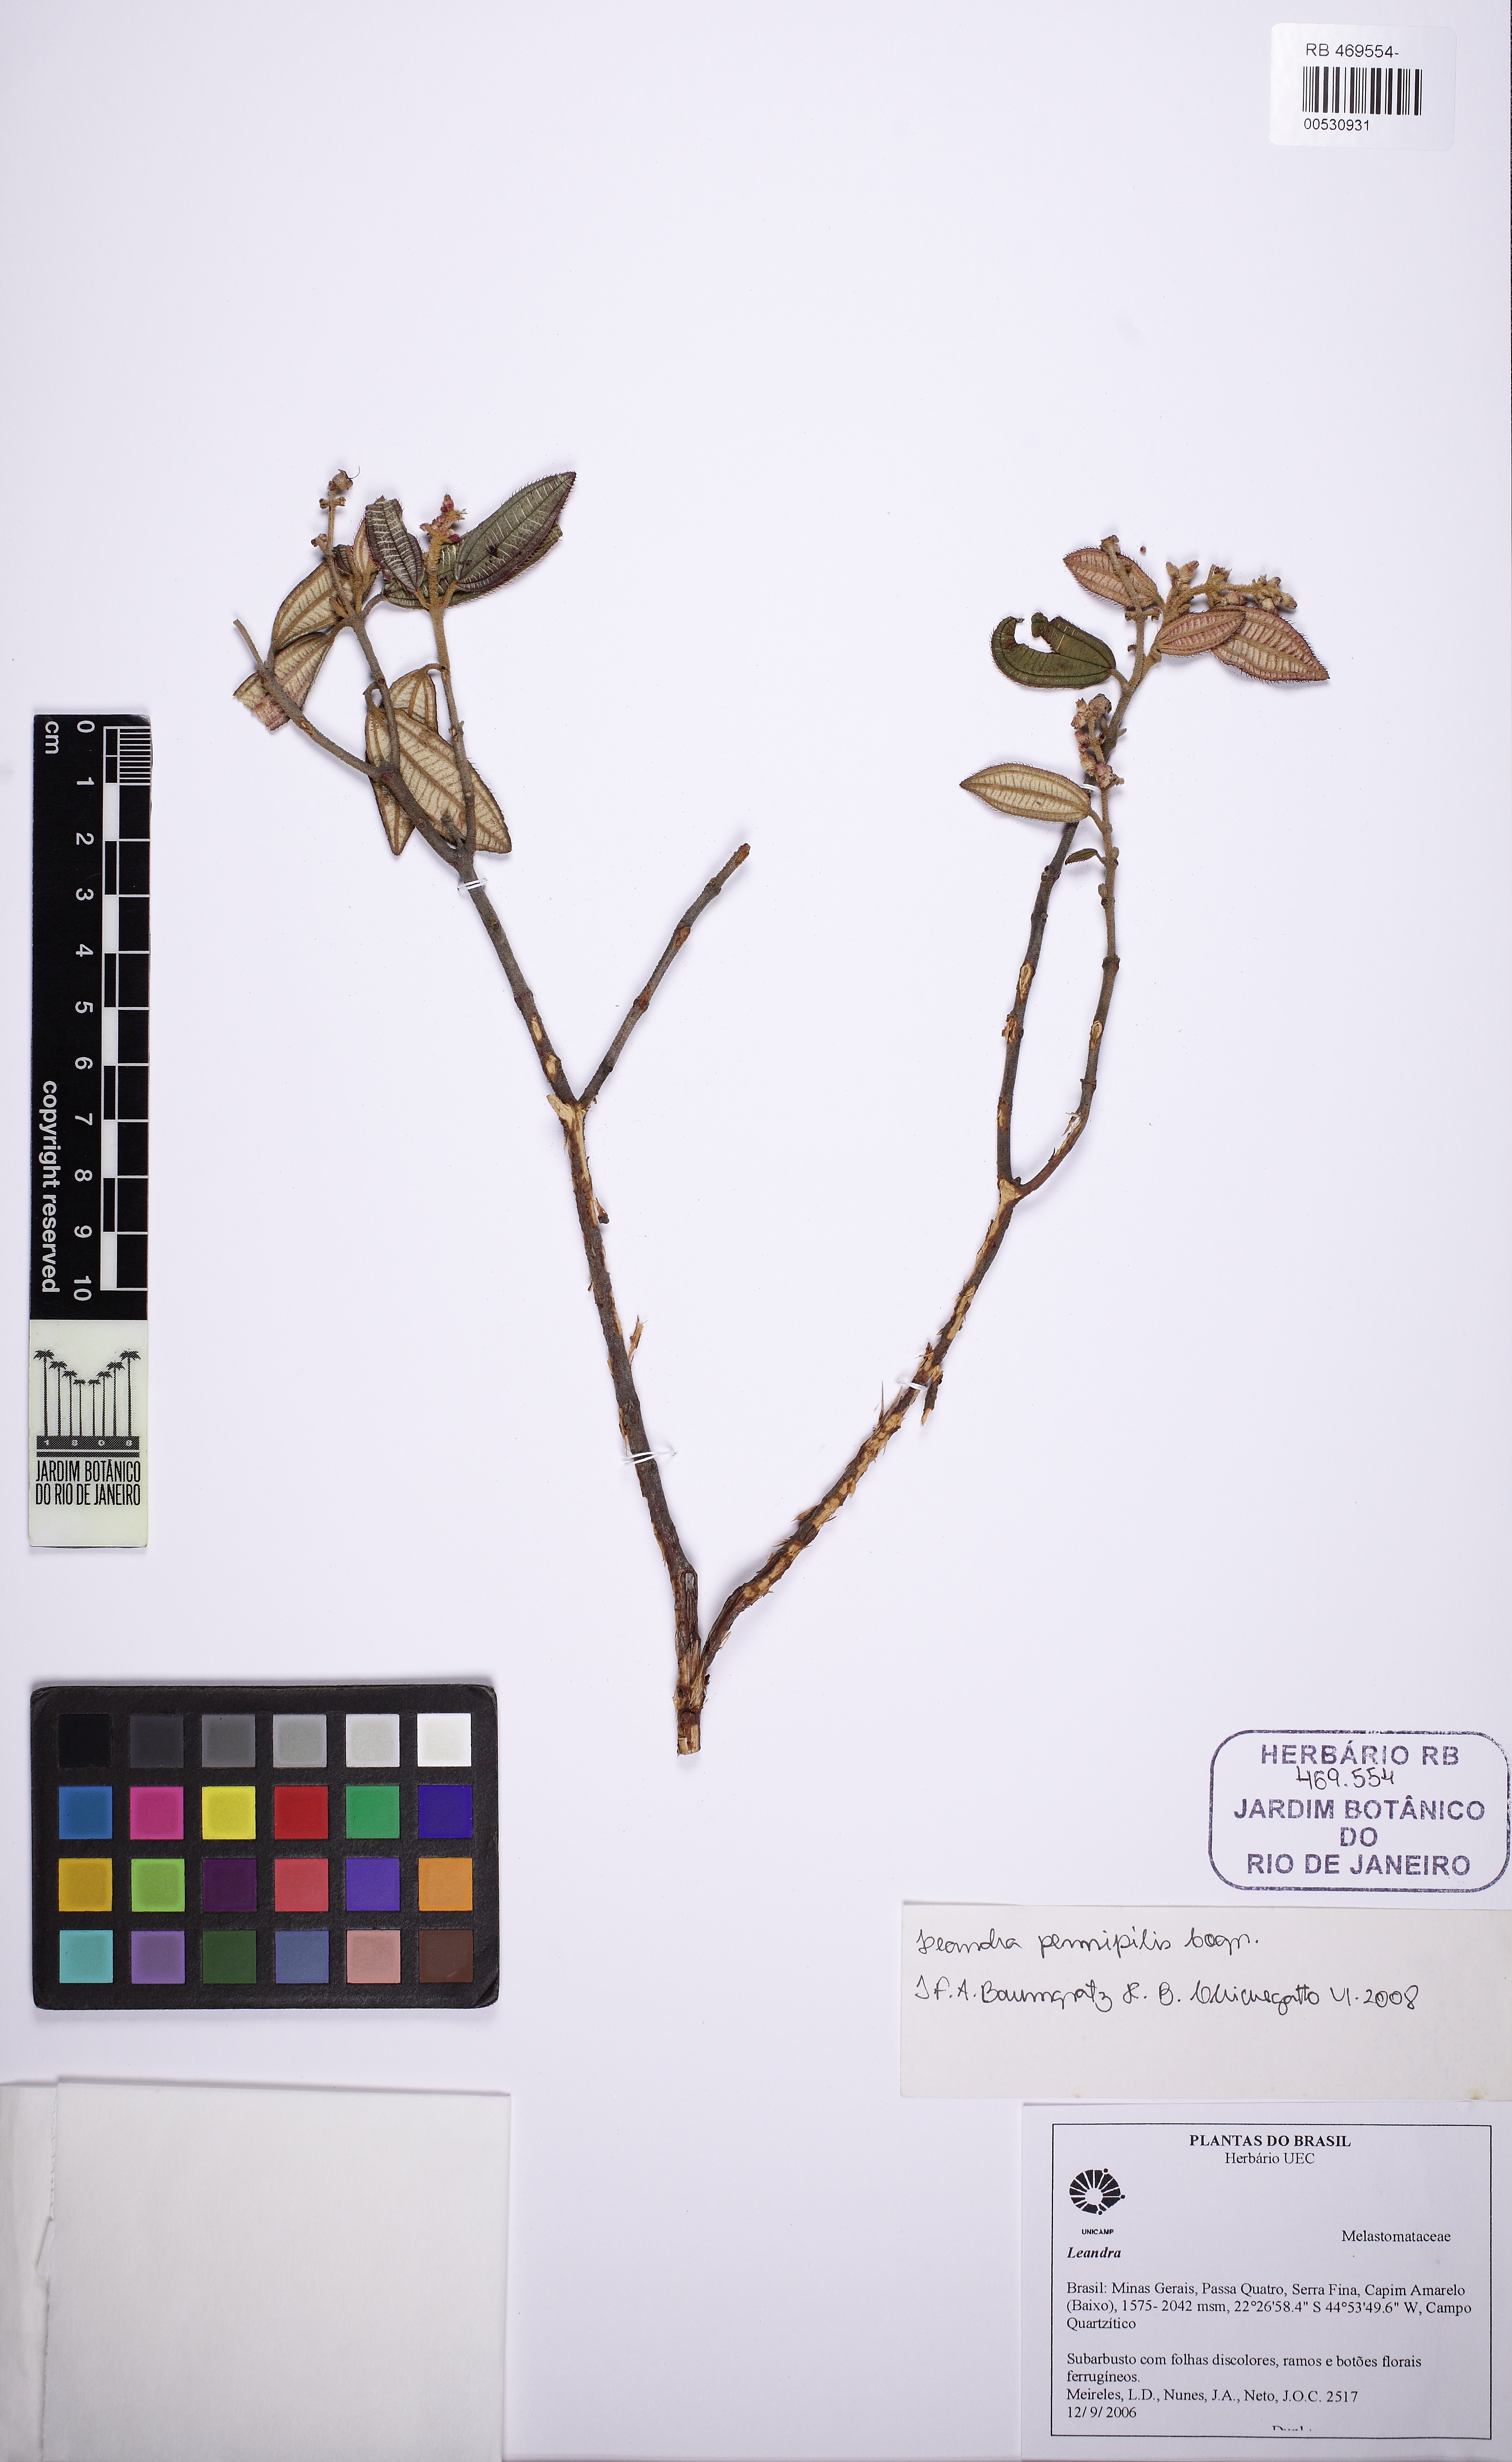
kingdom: Plantae
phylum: Tracheophyta
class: Magnoliopsida
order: Myrtales
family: Melastomataceae
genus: Miconia
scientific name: Miconia leapennipilis
